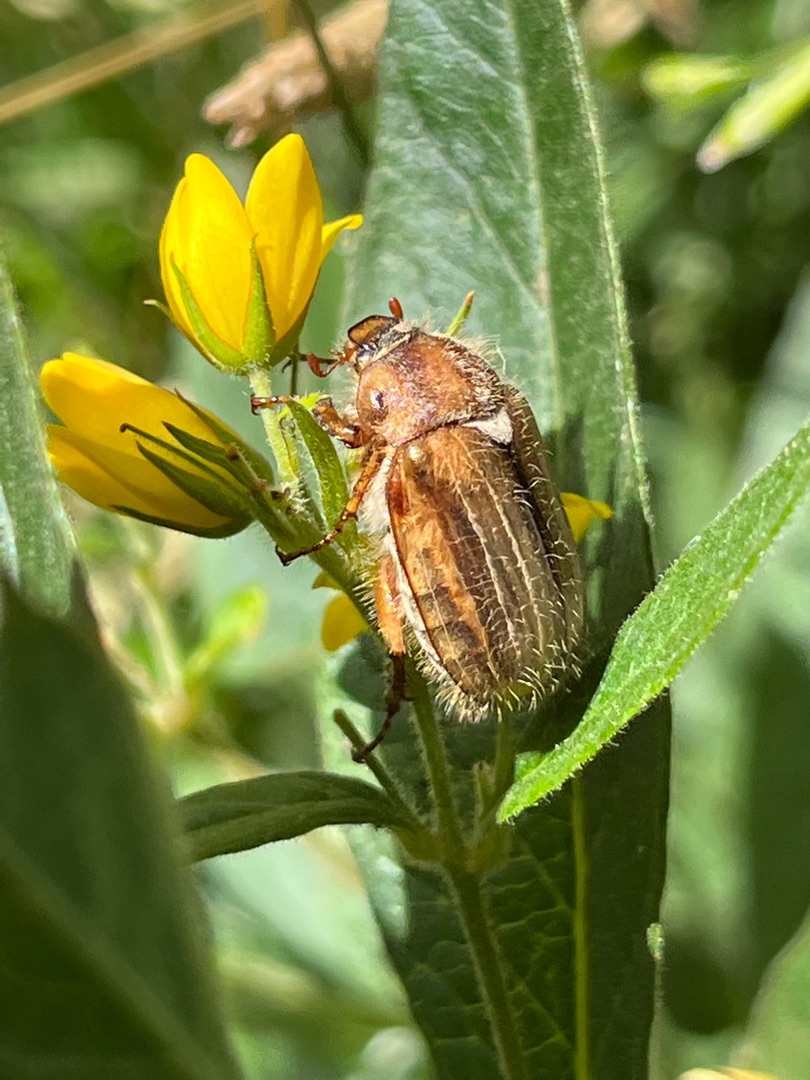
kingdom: Animalia
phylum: Arthropoda
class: Insecta
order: Coleoptera
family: Scarabaeidae
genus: Amphimallon
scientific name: Amphimallon solstitiale
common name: Sankthansoldenborre
